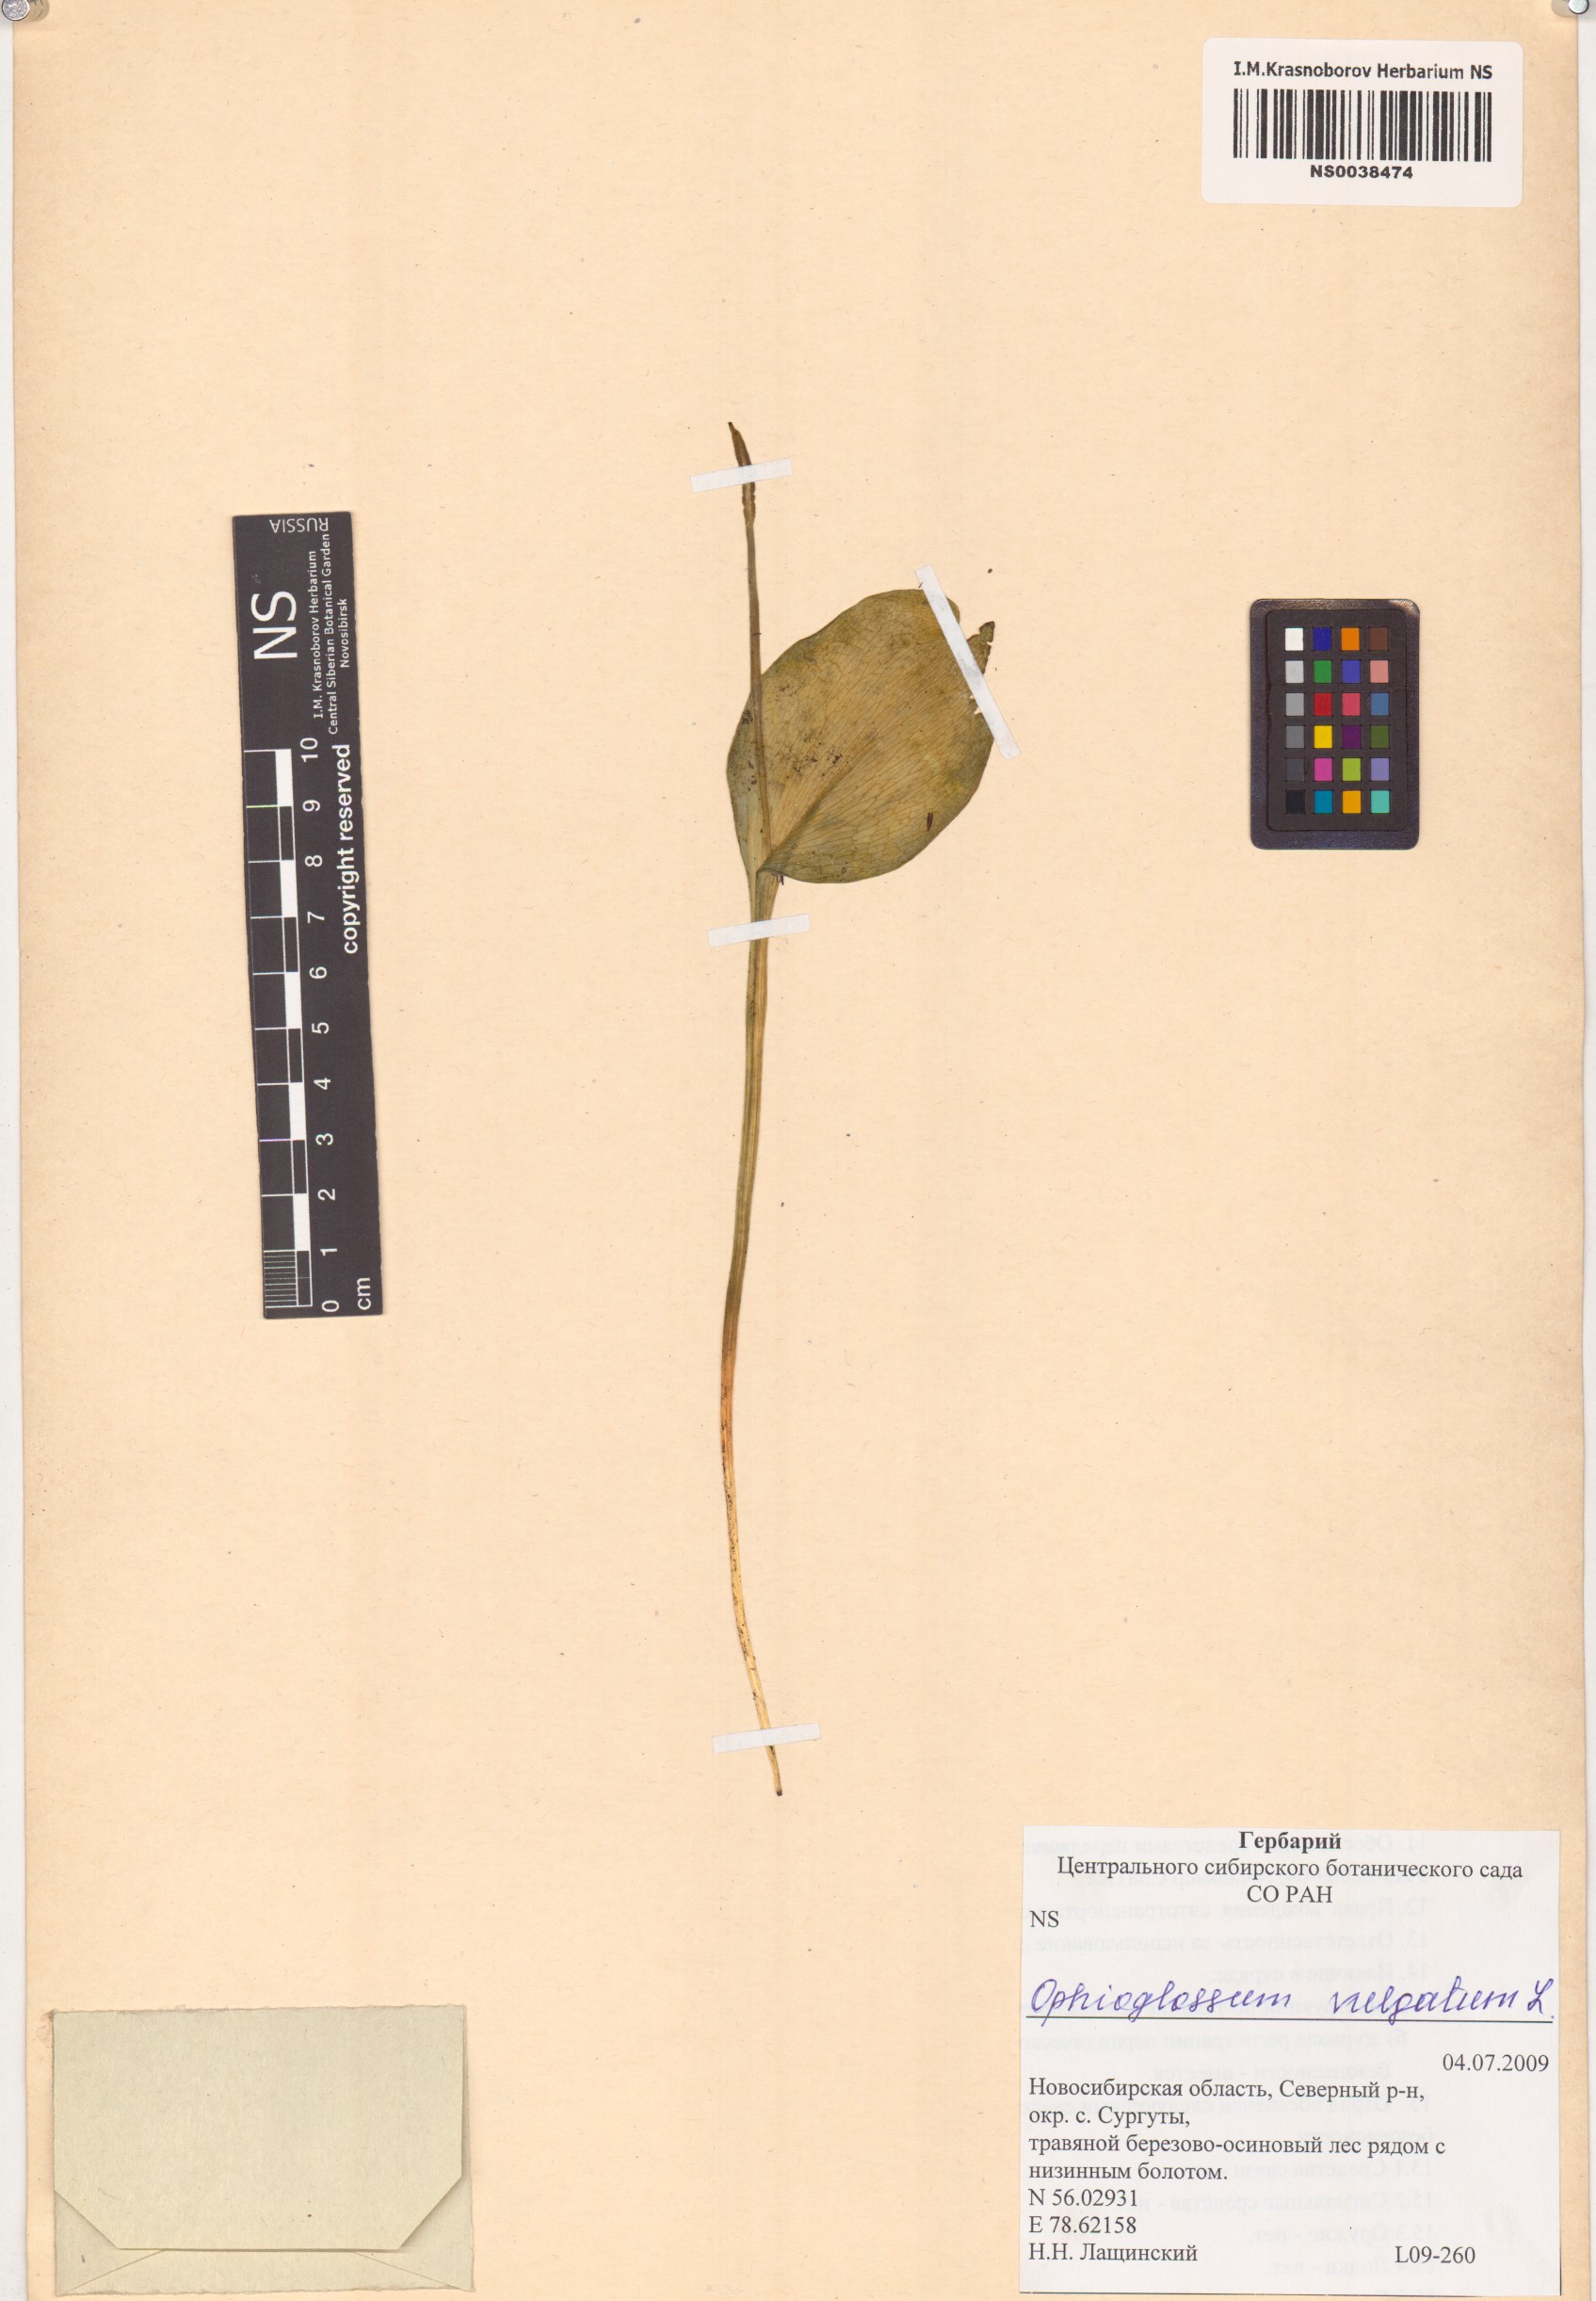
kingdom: Plantae
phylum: Tracheophyta
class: Polypodiopsida
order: Ophioglossales
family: Ophioglossaceae
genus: Ophioglossum
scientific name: Ophioglossum vulgatum
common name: Adder's-tongue
